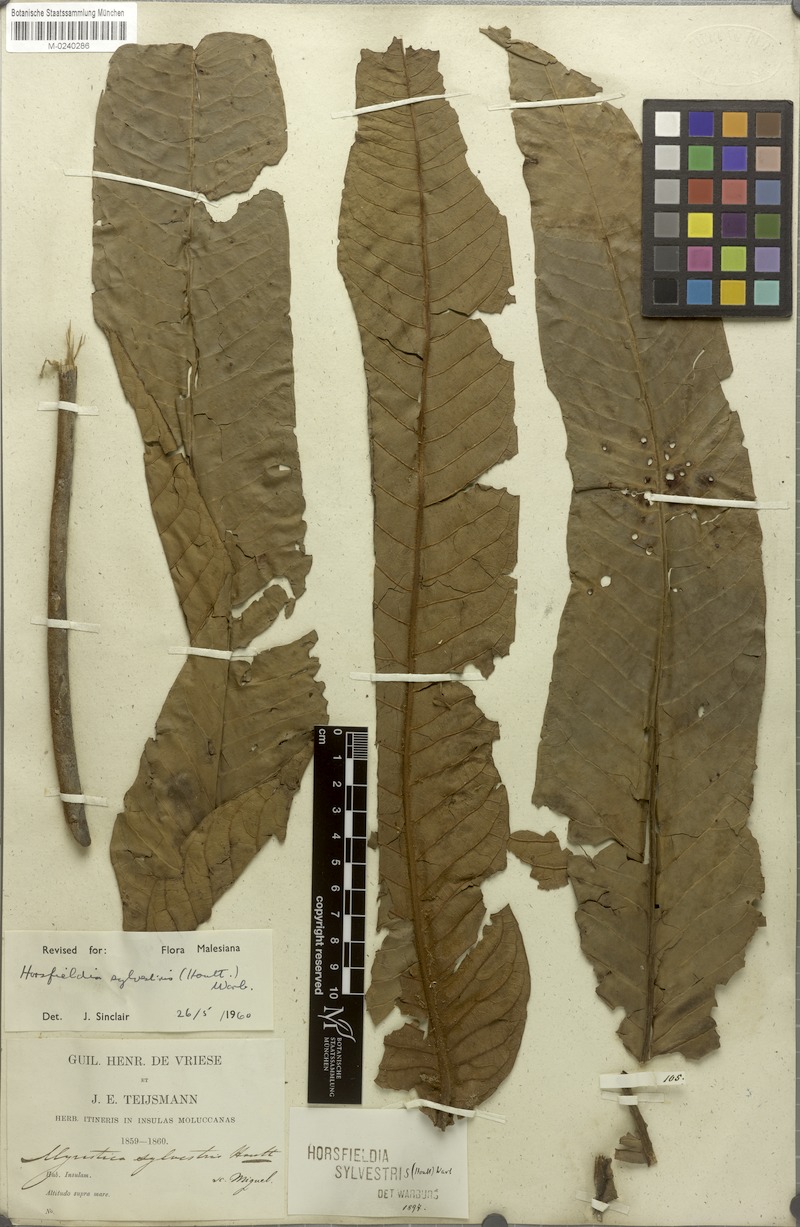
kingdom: Plantae
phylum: Tracheophyta
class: Magnoliopsida
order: Magnoliales
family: Myristicaceae
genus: Horsfieldia
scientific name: Horsfieldia sylvestris
